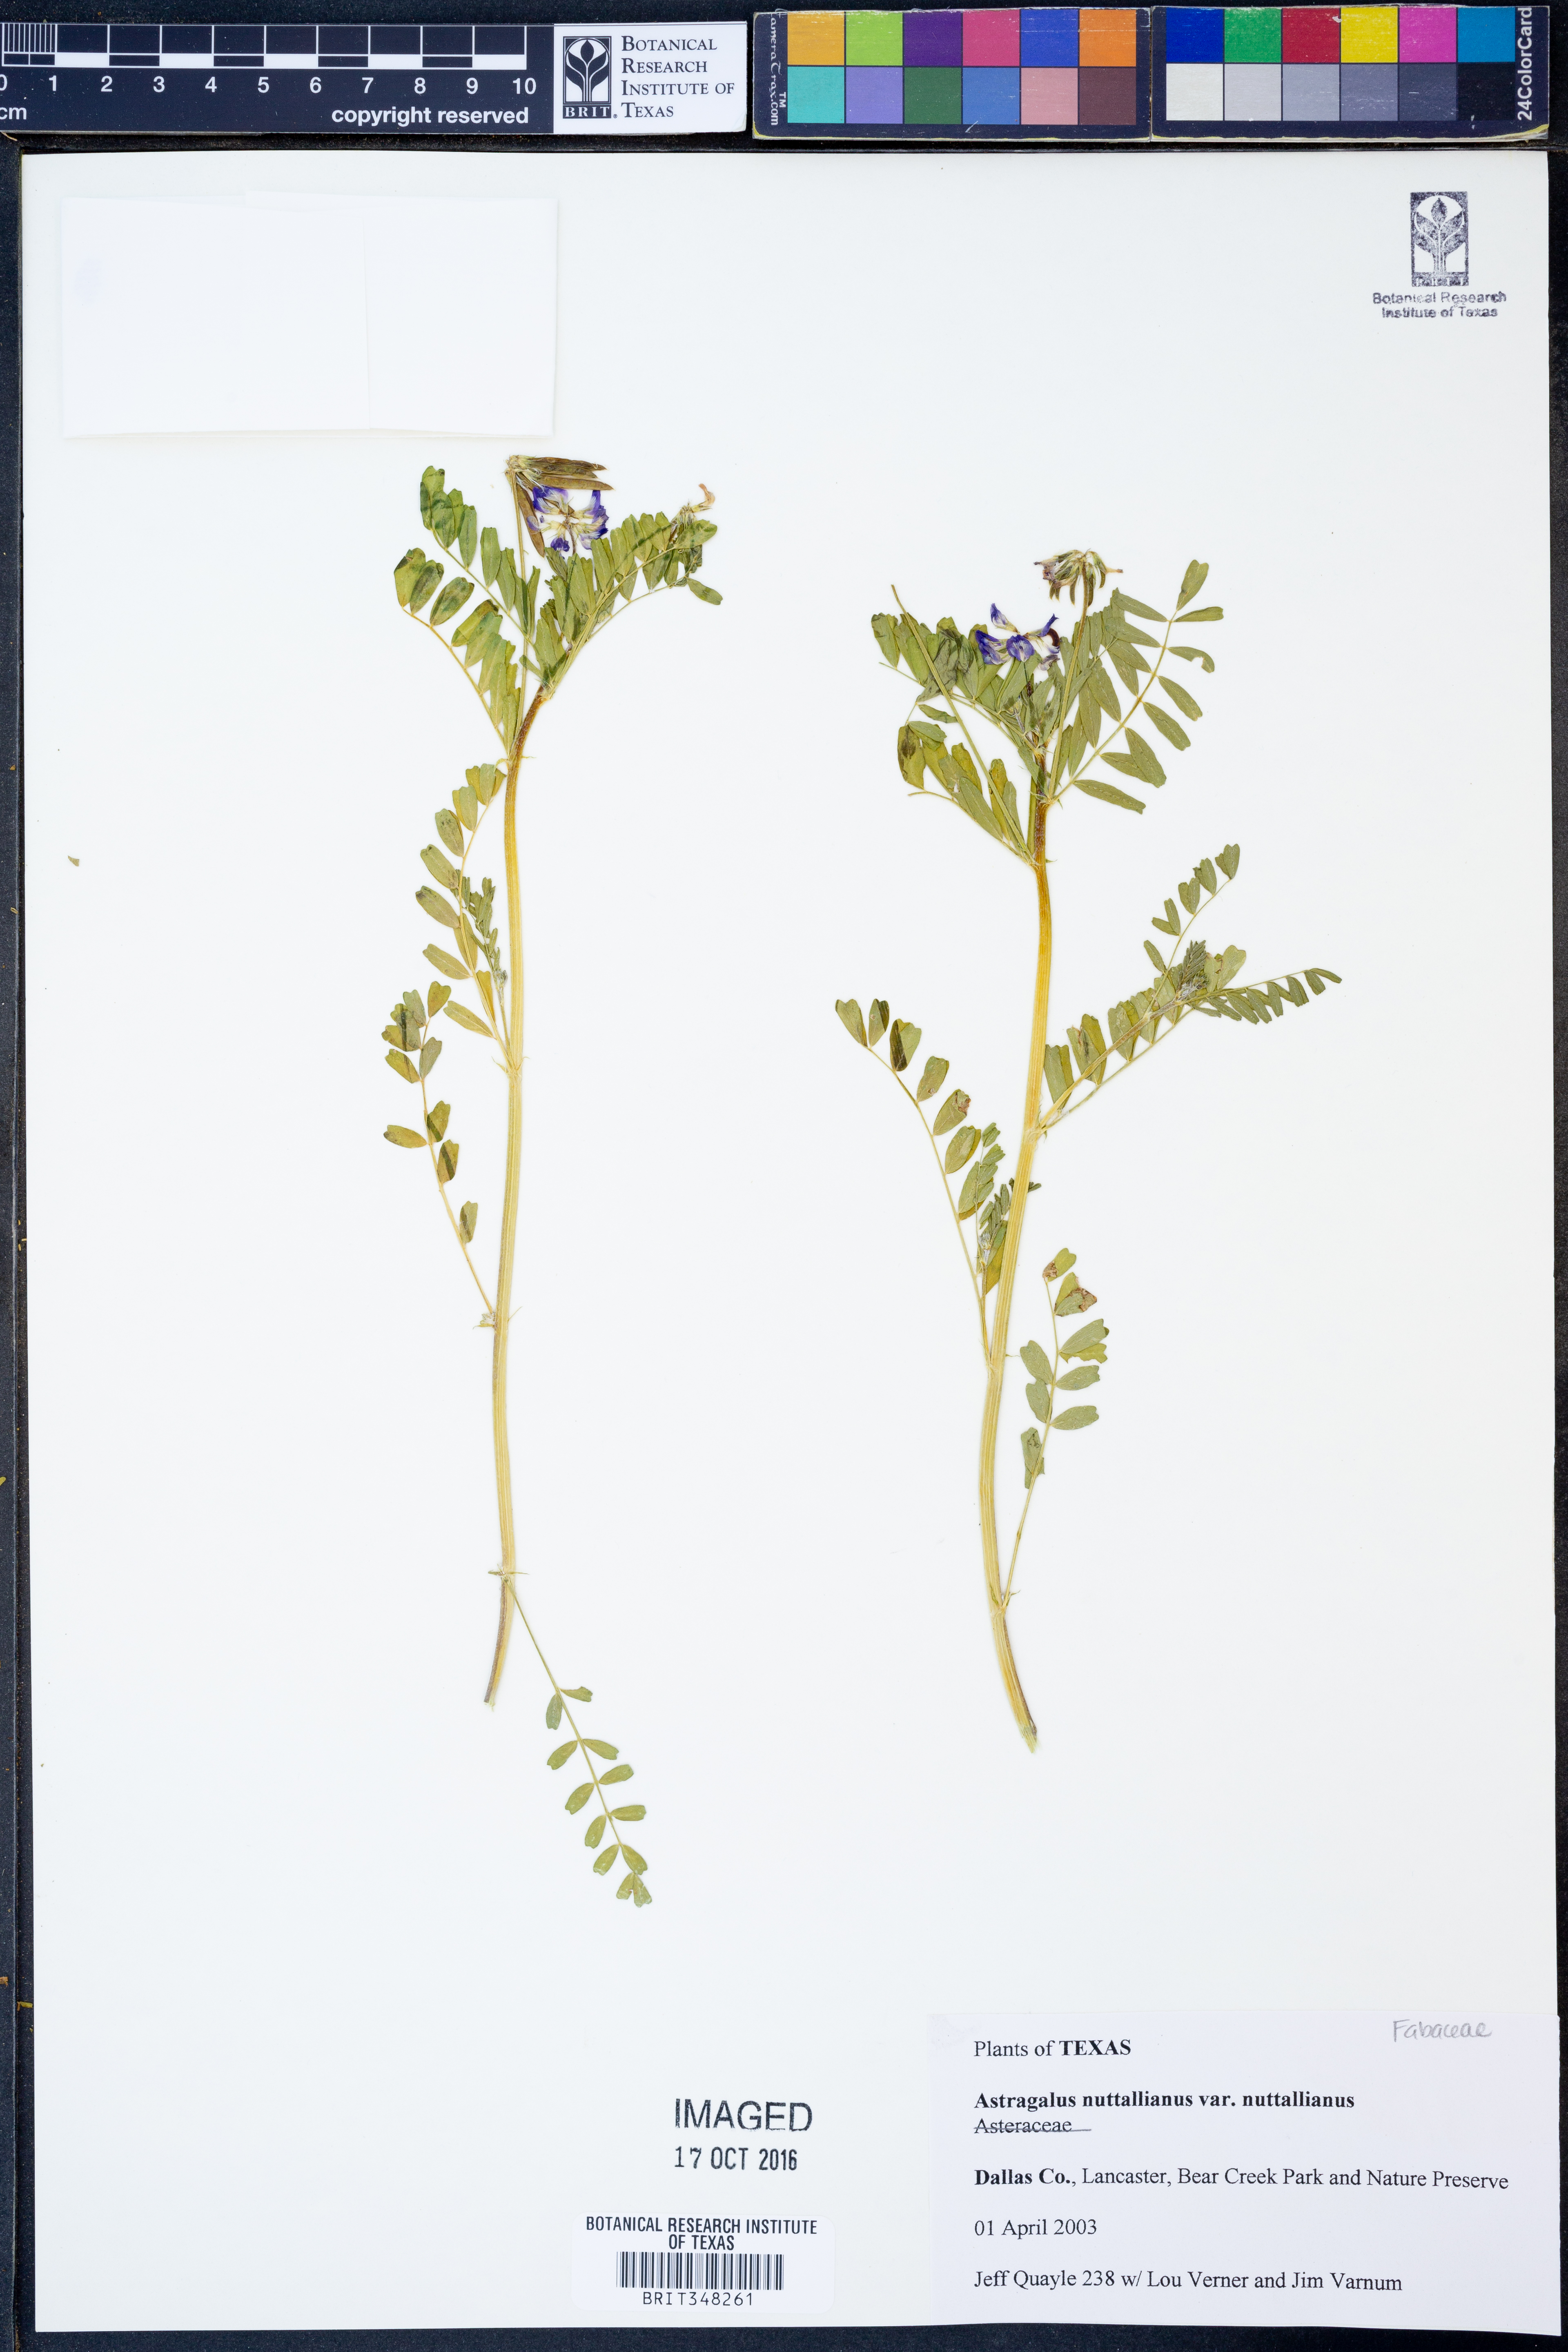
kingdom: Plantae
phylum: Tracheophyta
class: Magnoliopsida
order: Fabales
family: Fabaceae
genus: Astragalus
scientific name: Astragalus nuttallianus
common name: Smallflowered milkvetch
